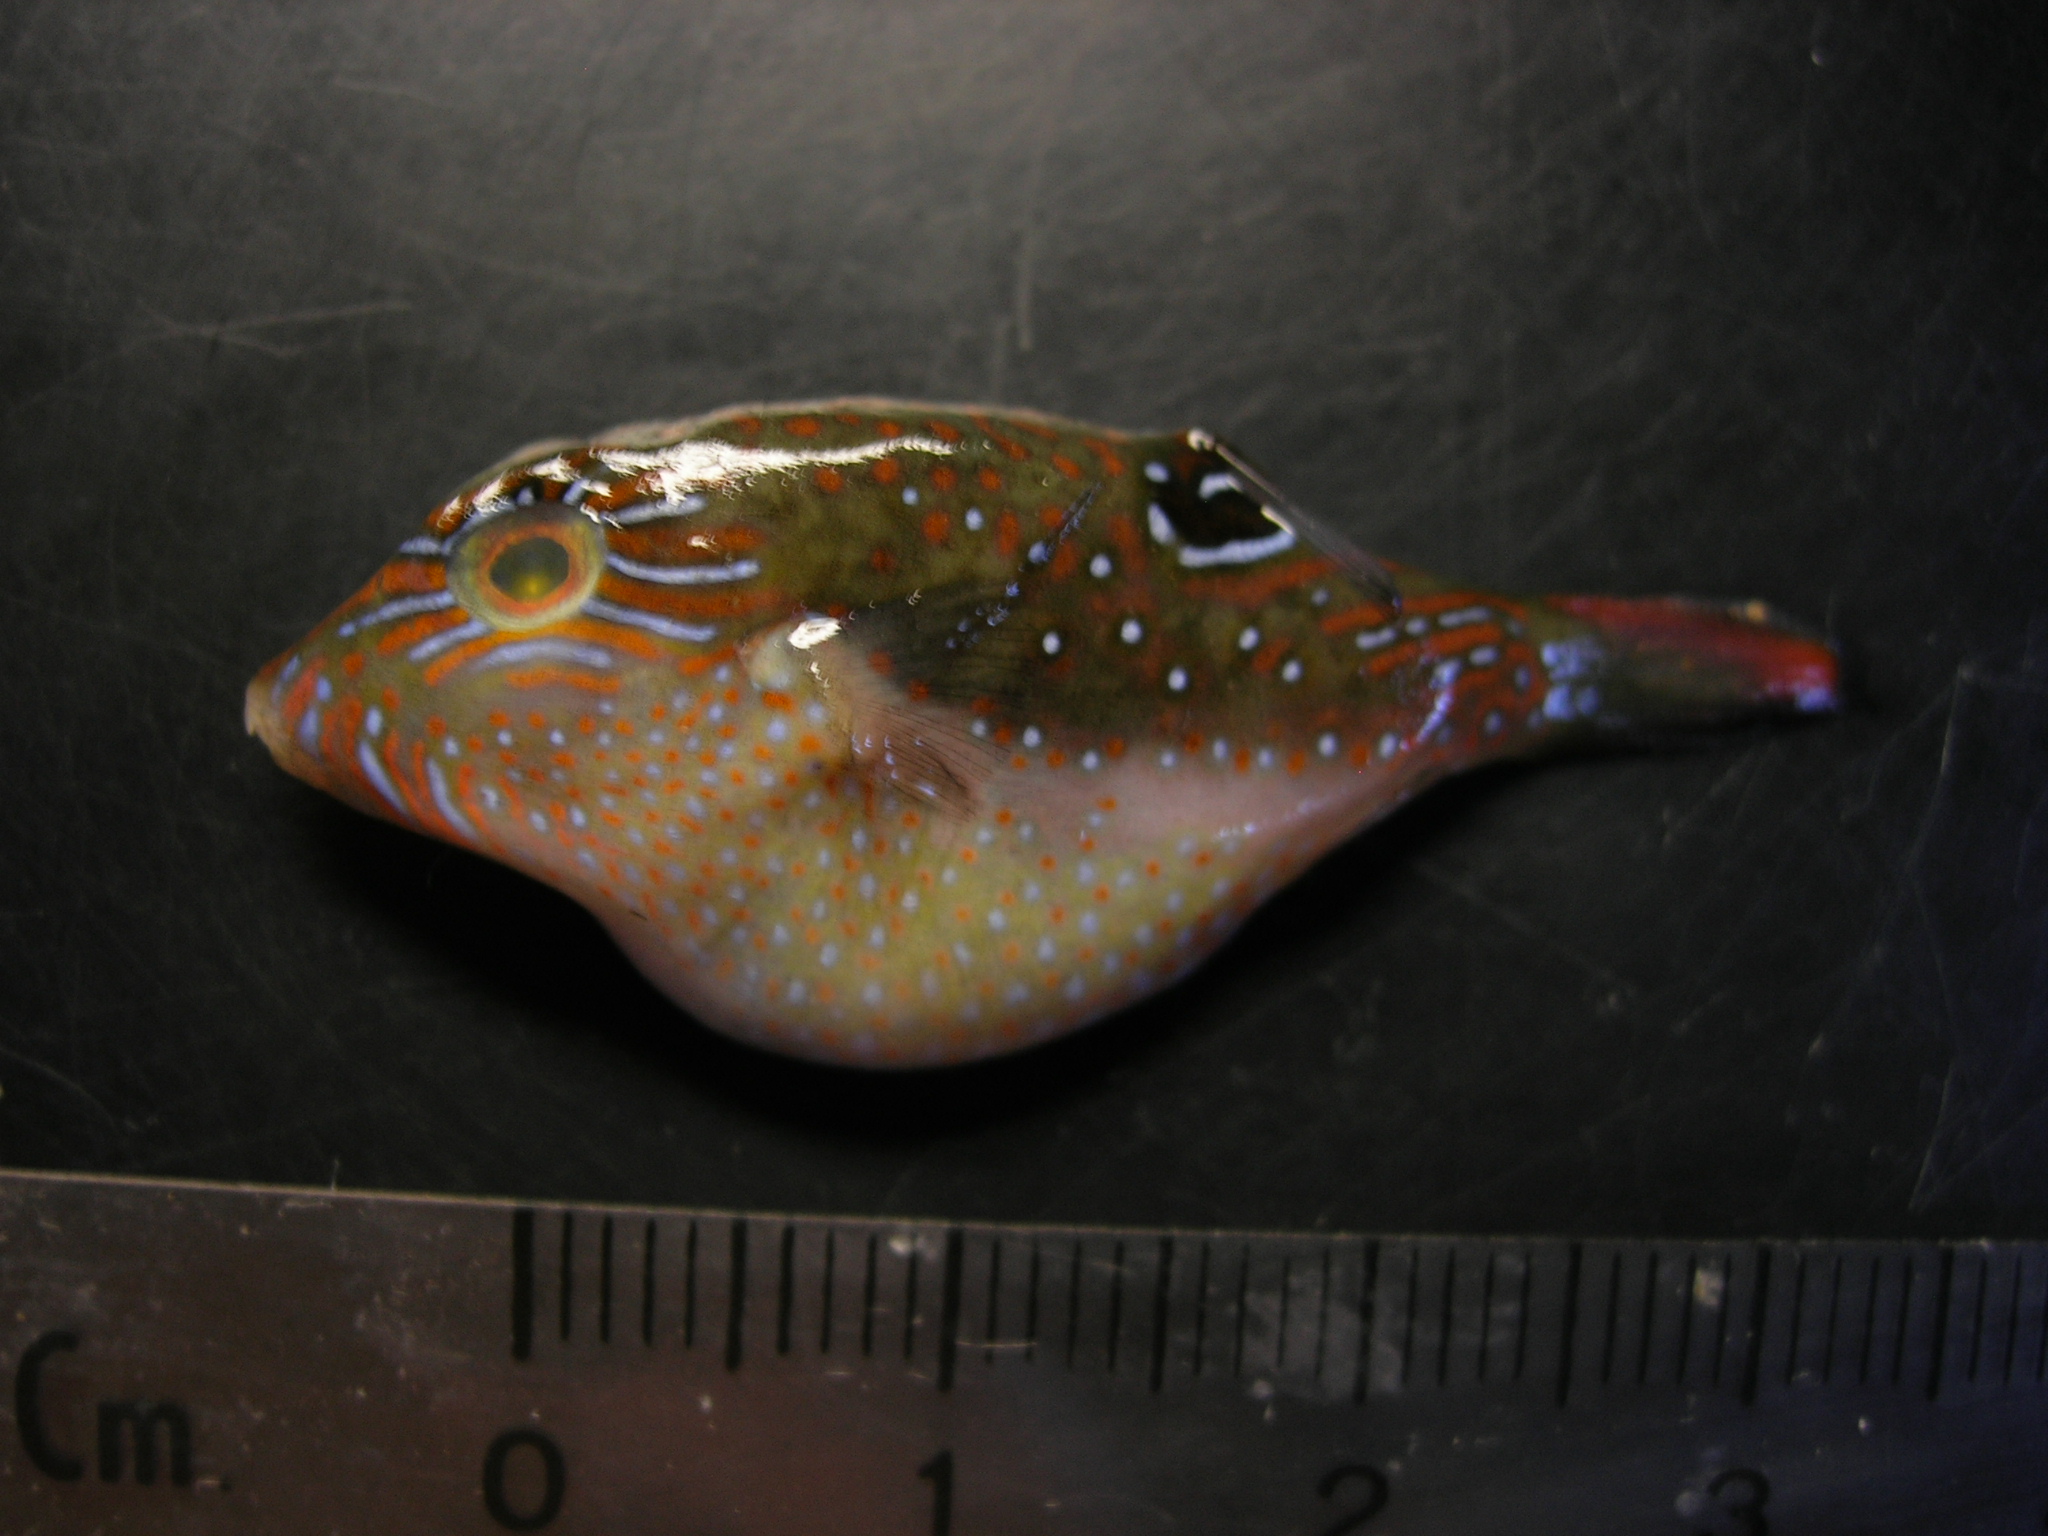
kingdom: Animalia
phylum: Chordata
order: Tetraodontiformes
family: Tetraodontidae
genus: Canthigaster
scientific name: Canthigaster bennetti
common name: Bennett's pufferfish
